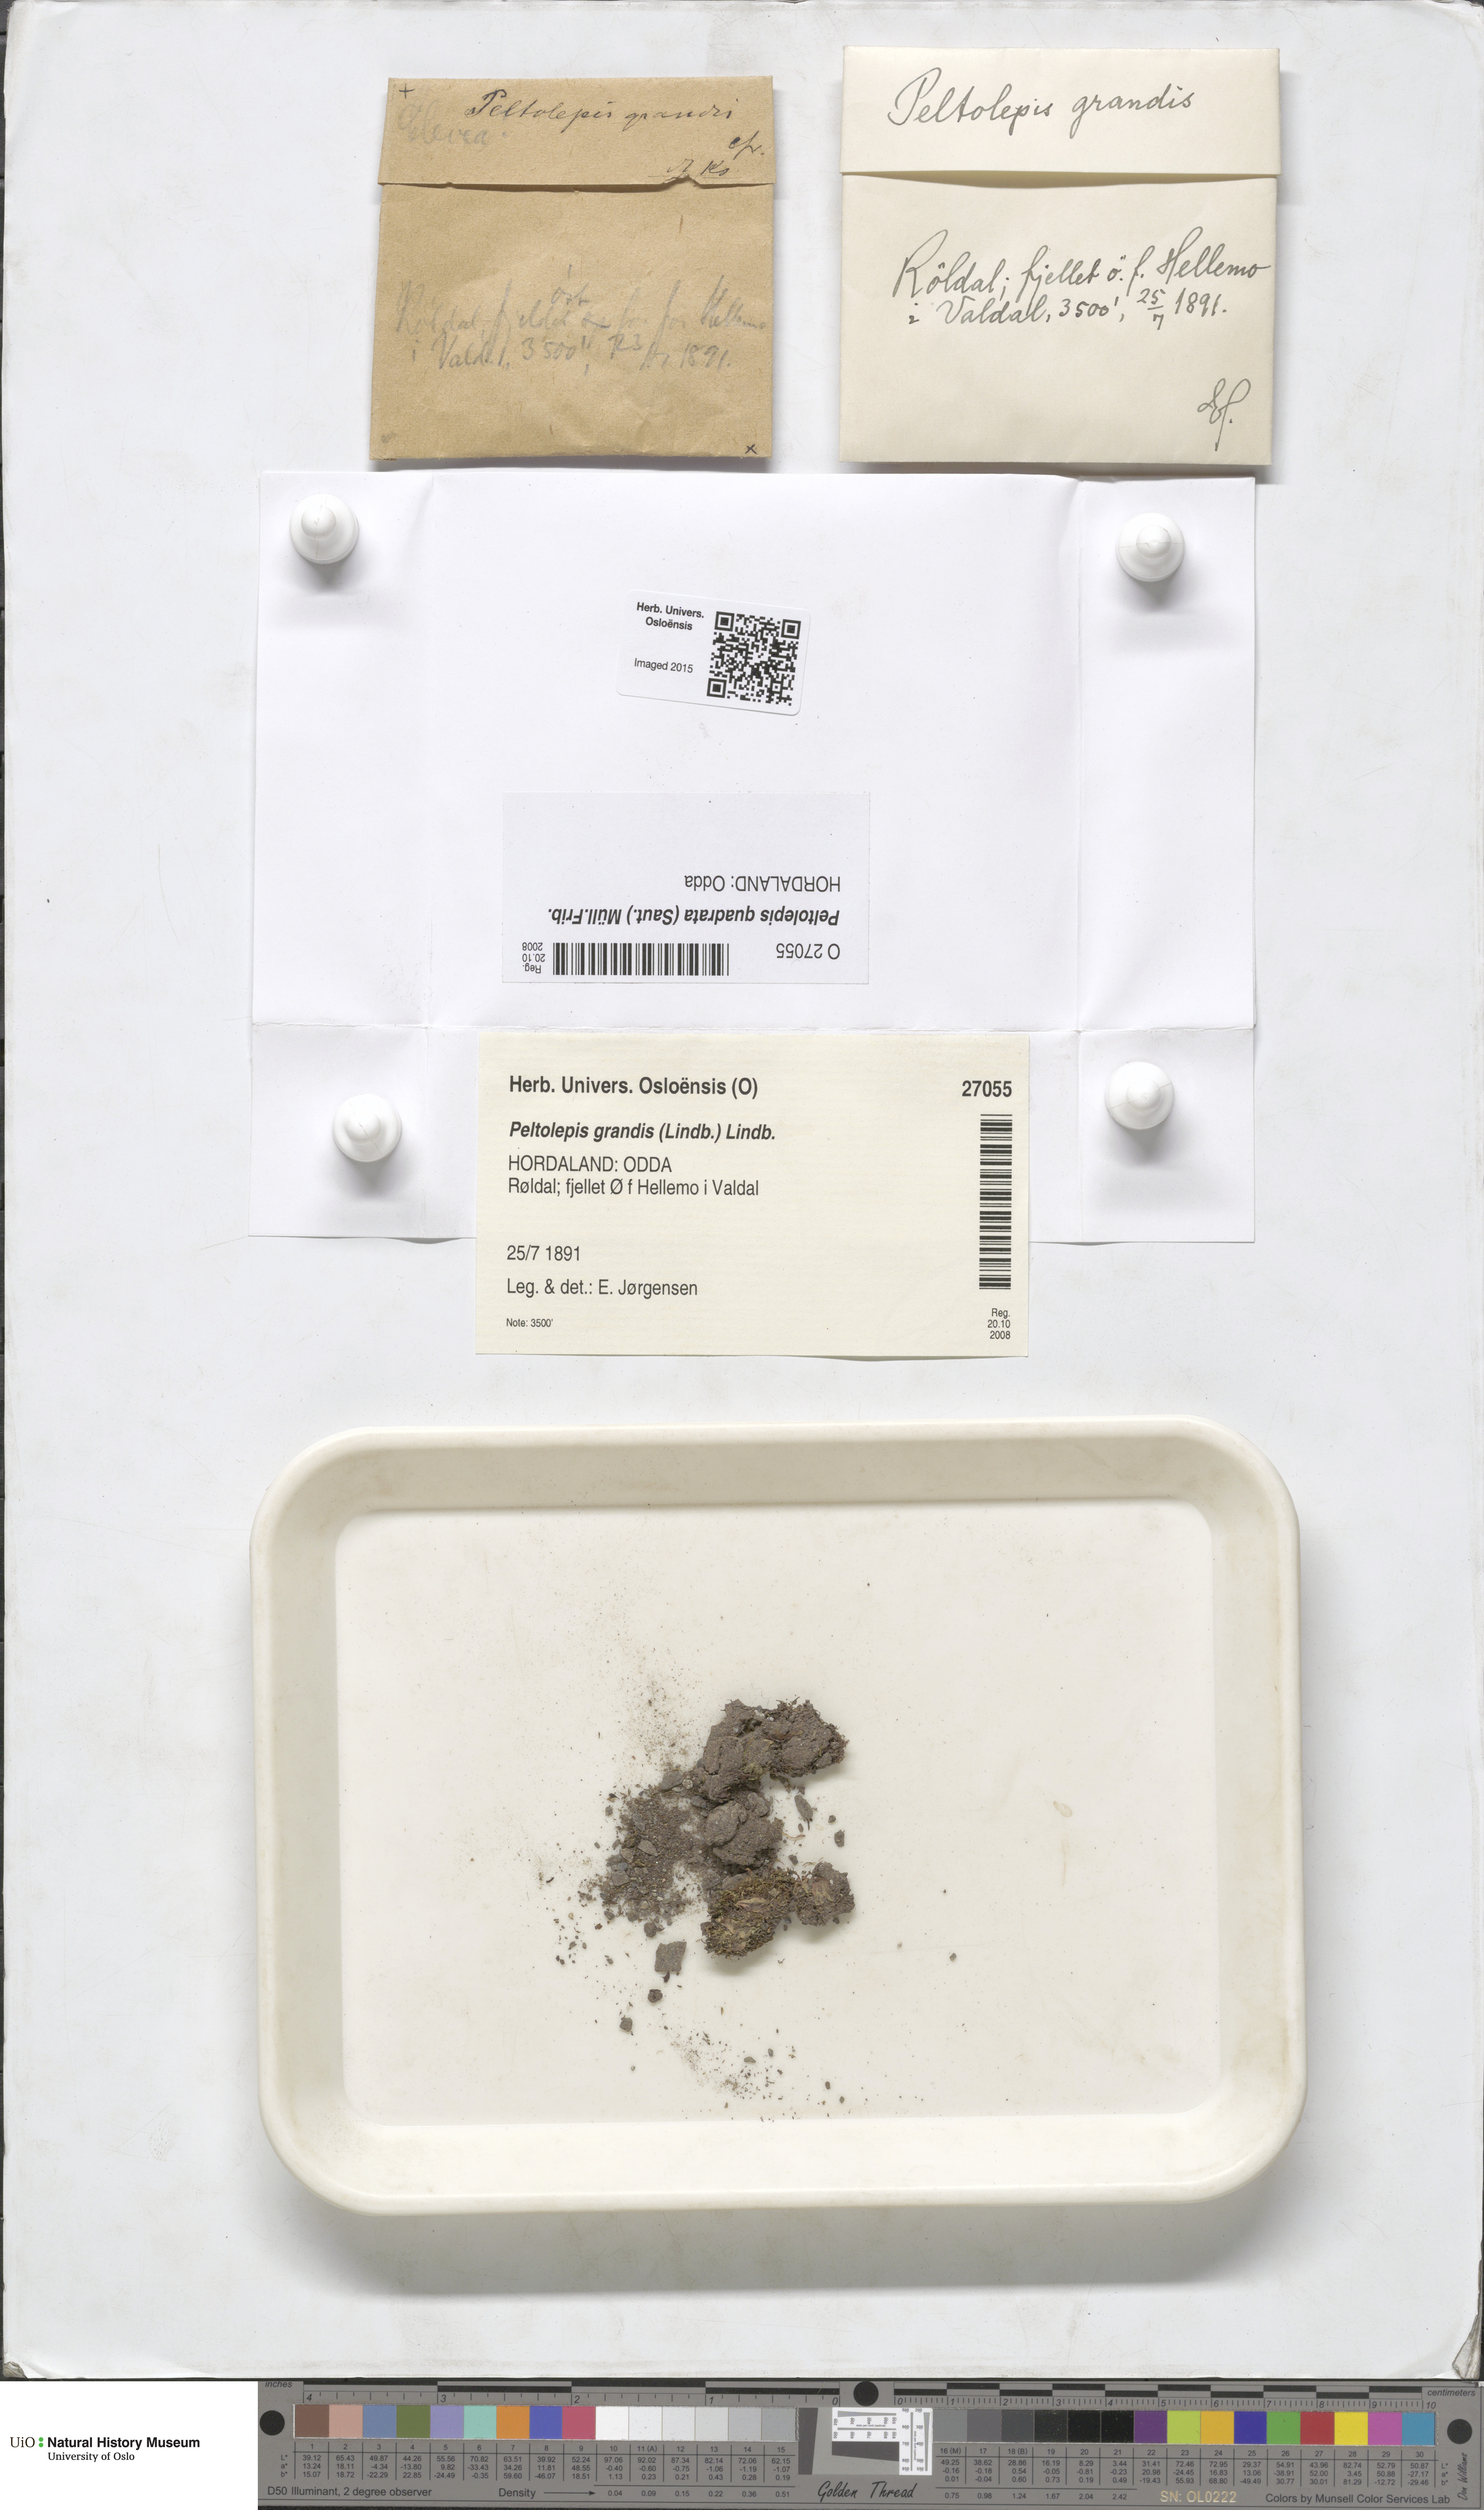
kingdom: Plantae
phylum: Marchantiophyta
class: Marchantiopsida
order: Marchantiales
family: Cleveaceae
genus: Peltolepis
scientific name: Peltolepis quadrata
